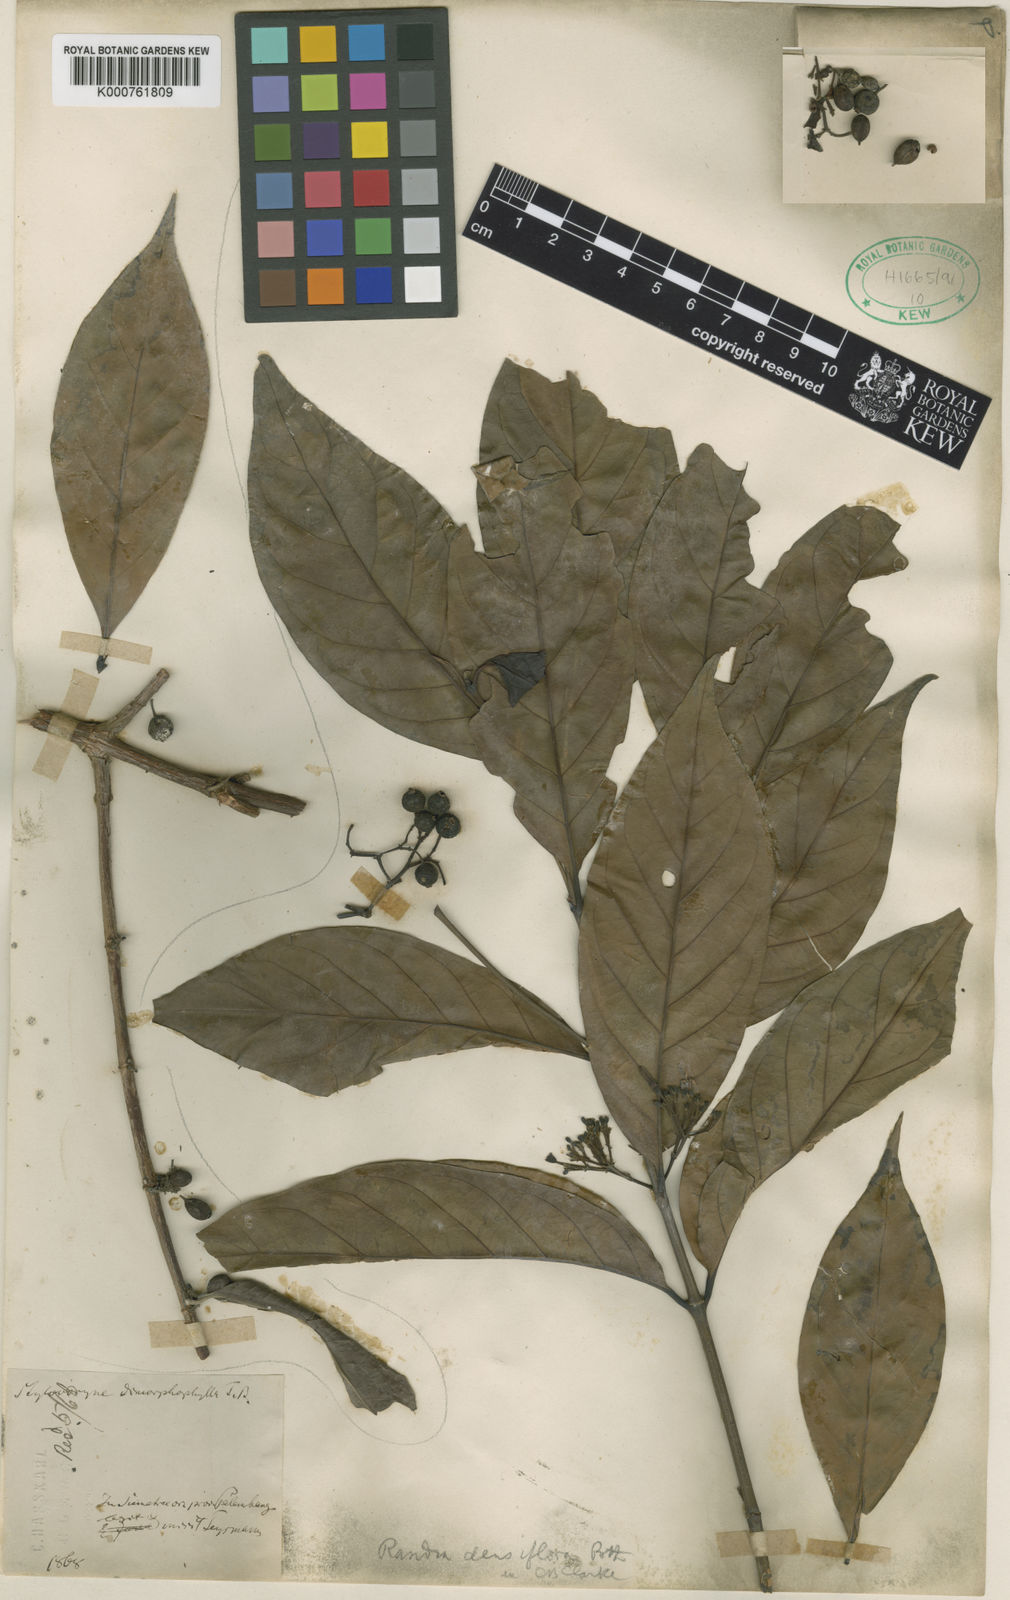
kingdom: Plantae
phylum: Tracheophyta
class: Magnoliopsida
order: Gentianales
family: Rubiaceae
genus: Aidia
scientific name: Aidia densiflora
